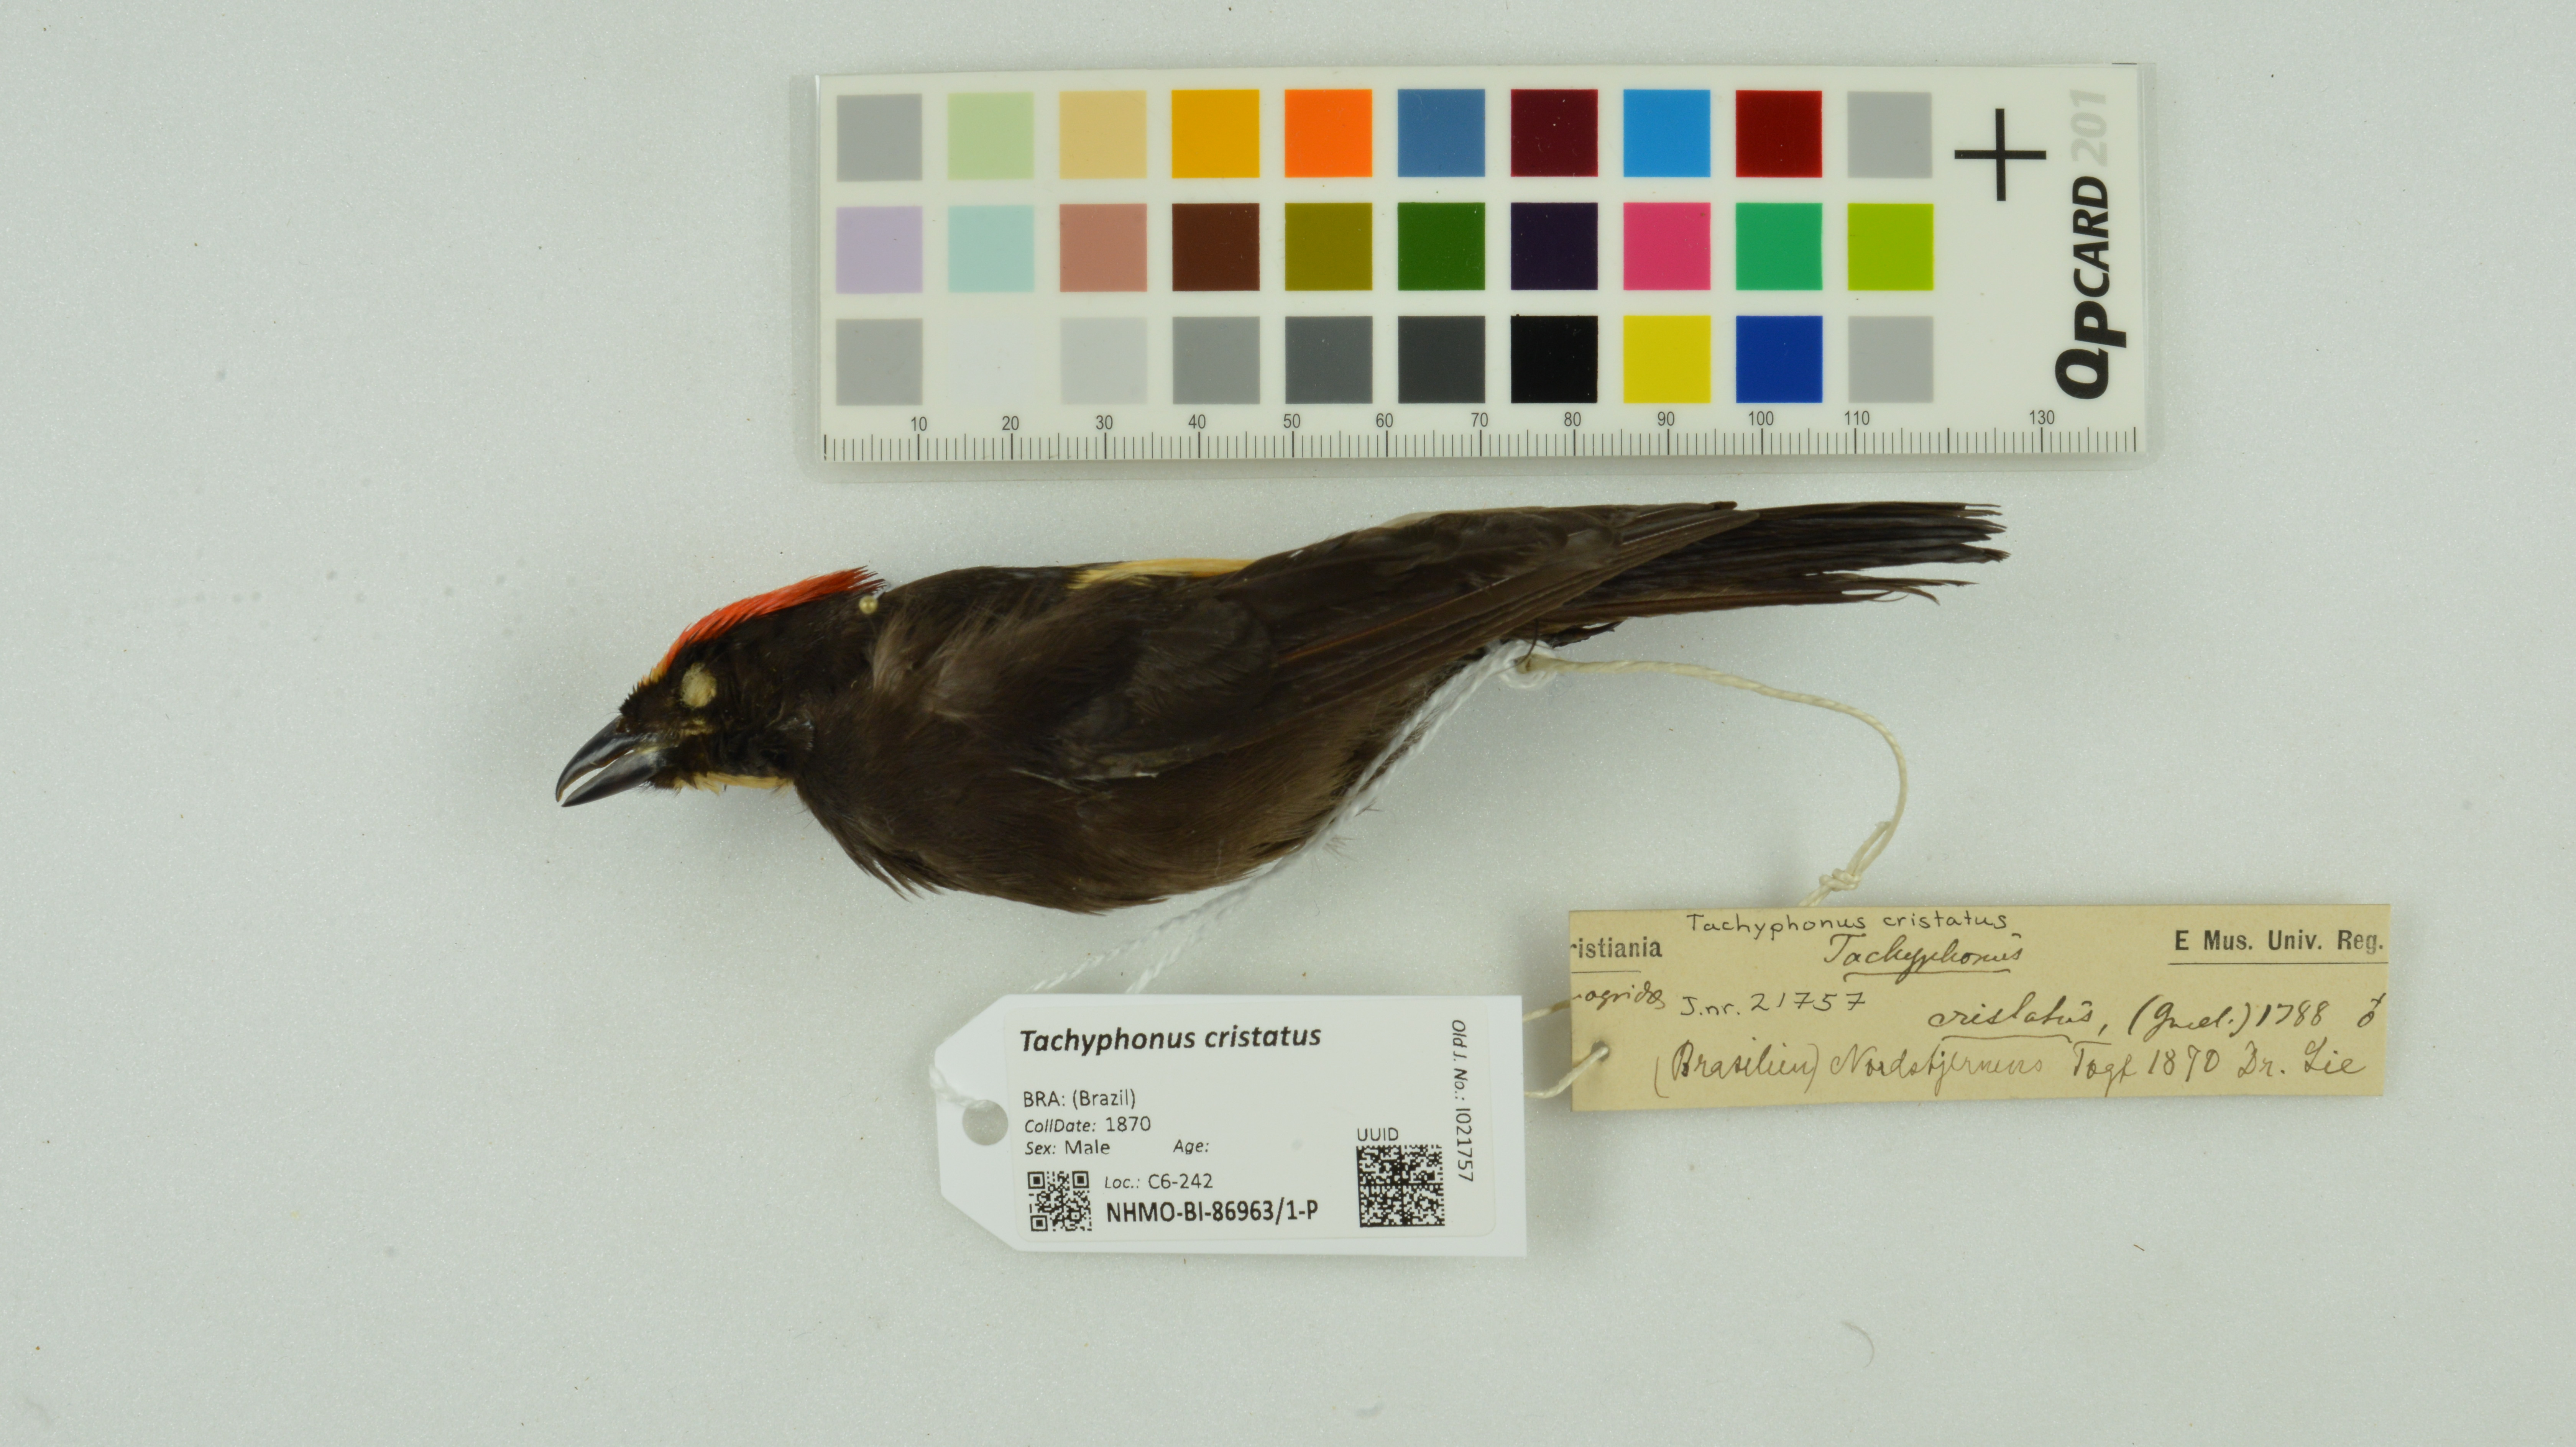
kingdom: Animalia
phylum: Chordata
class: Aves
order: Passeriformes
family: Thraupidae
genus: Loriotus
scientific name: Loriotus cristatus
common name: Flame-crested tanager
